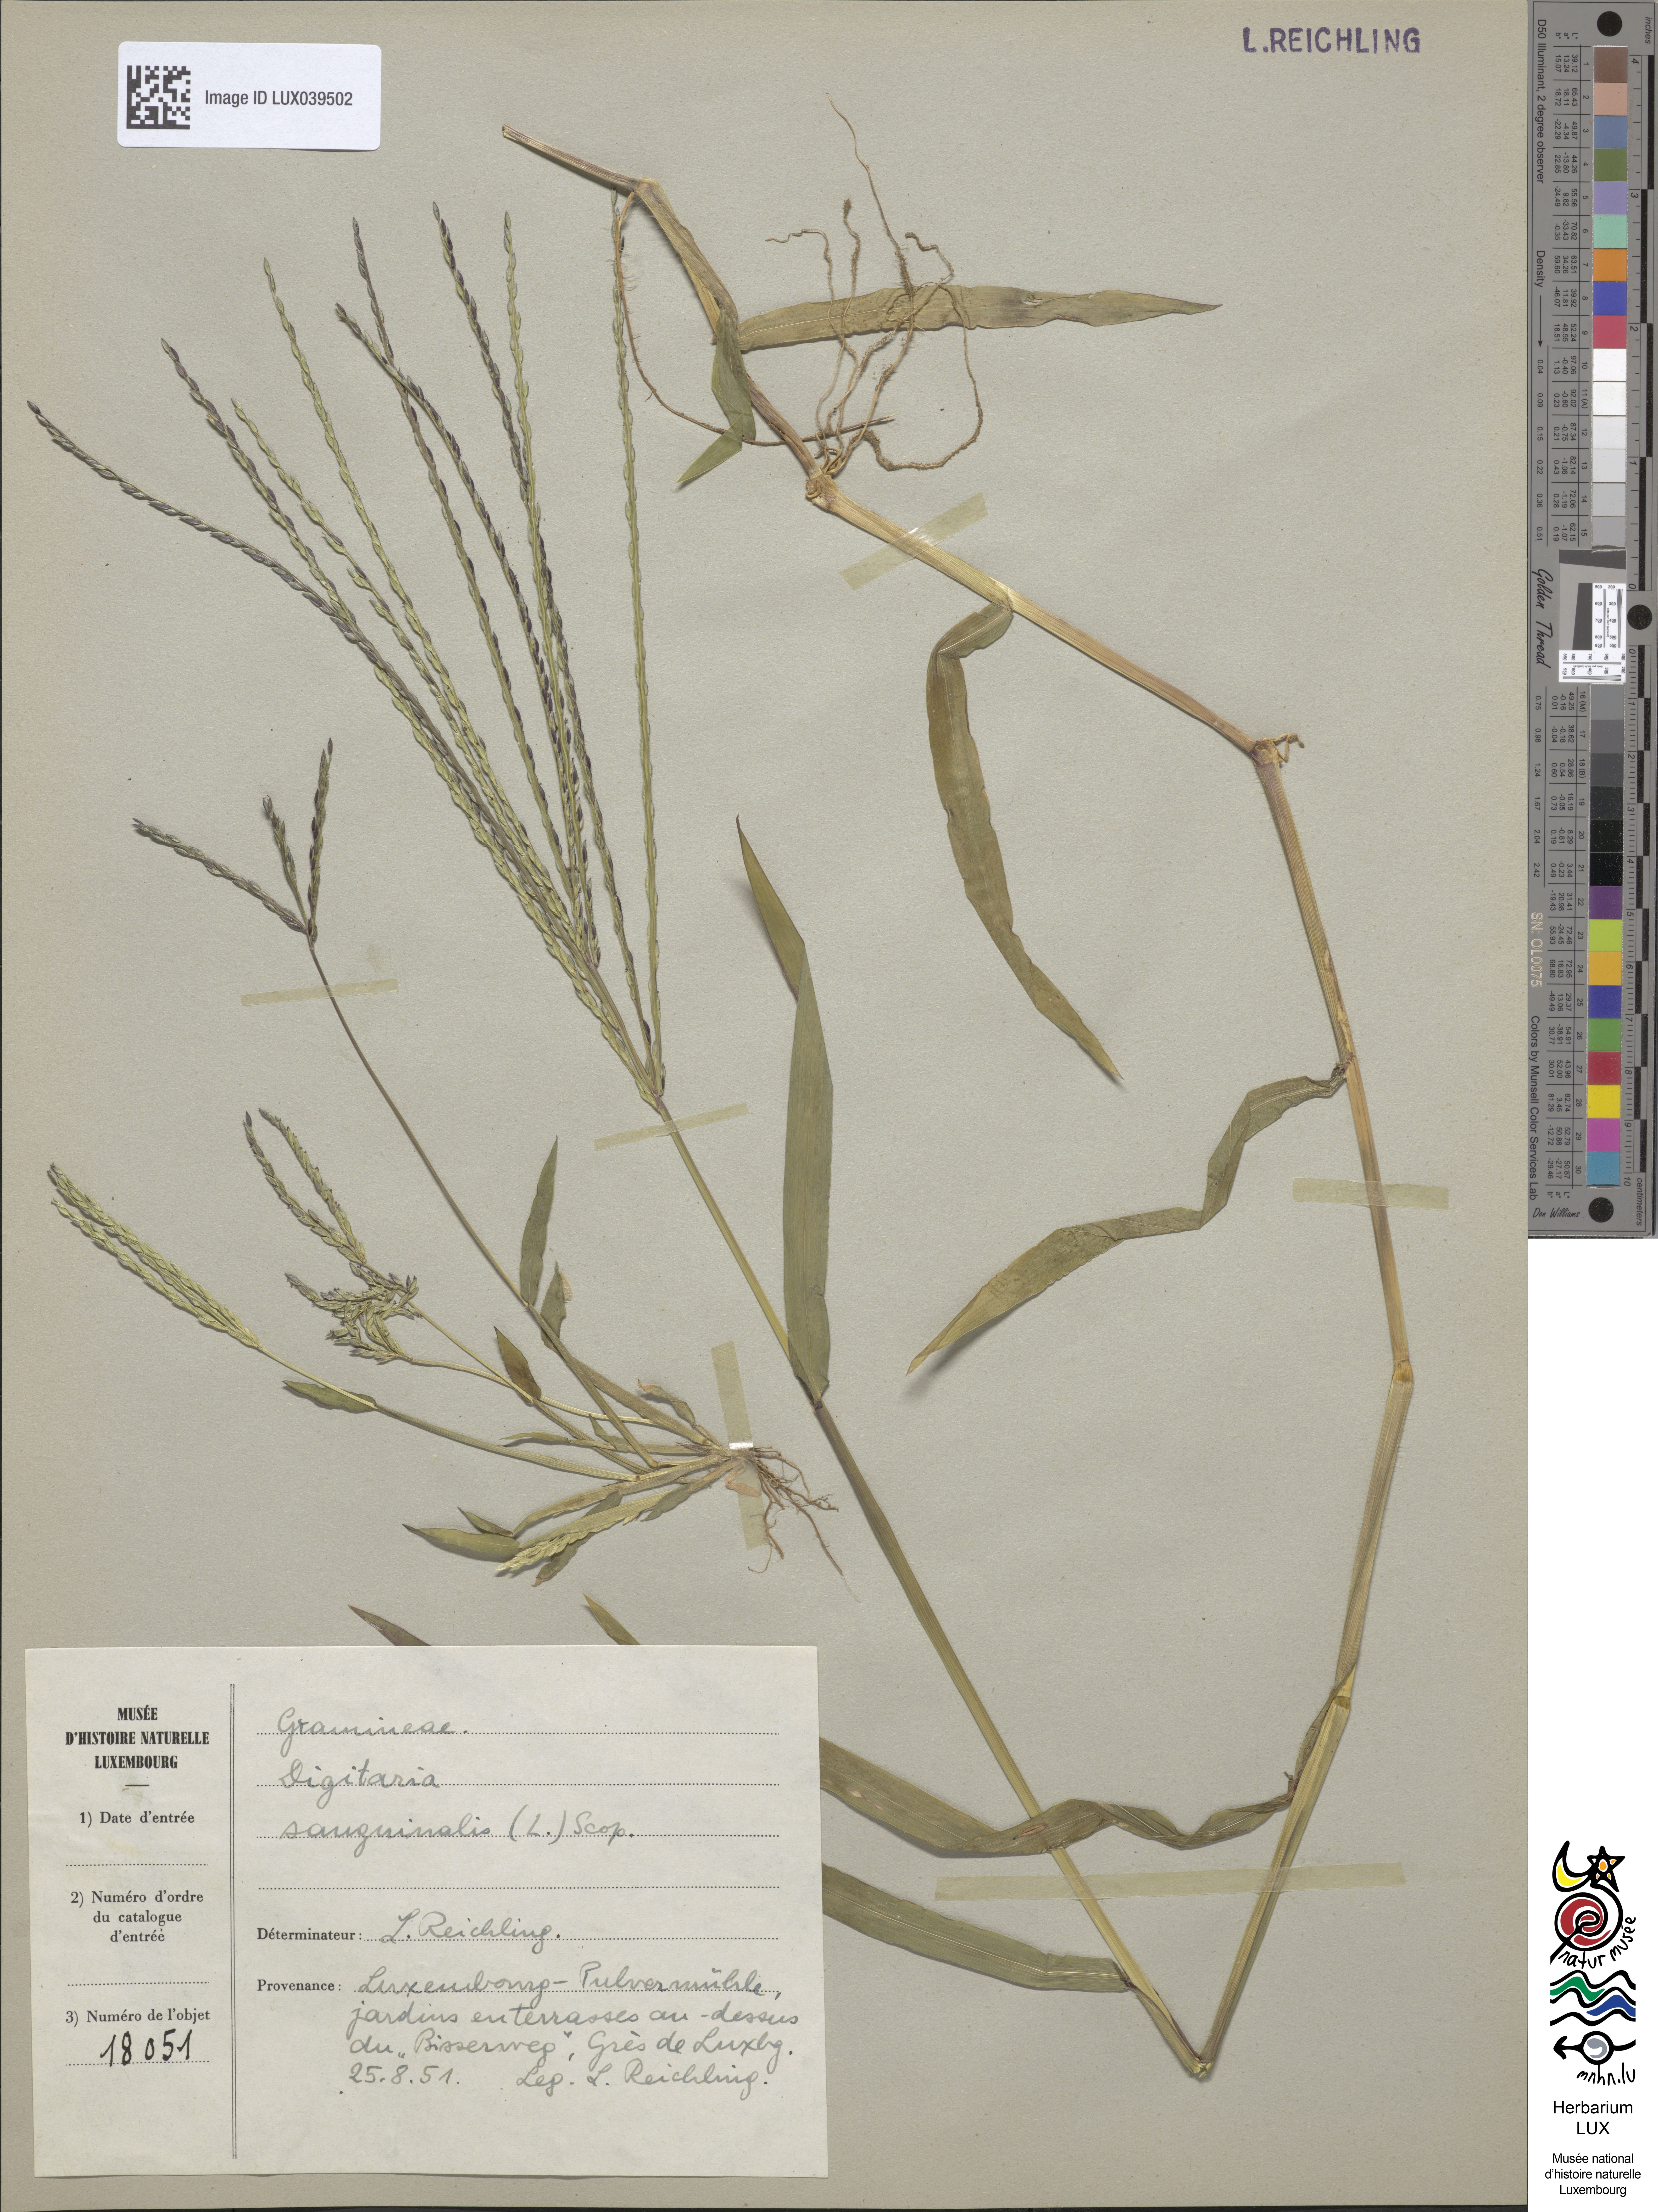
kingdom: Plantae
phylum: Tracheophyta
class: Liliopsida
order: Poales
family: Poaceae
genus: Digitaria
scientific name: Digitaria sanguinalis
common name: Hairy crabgrass
